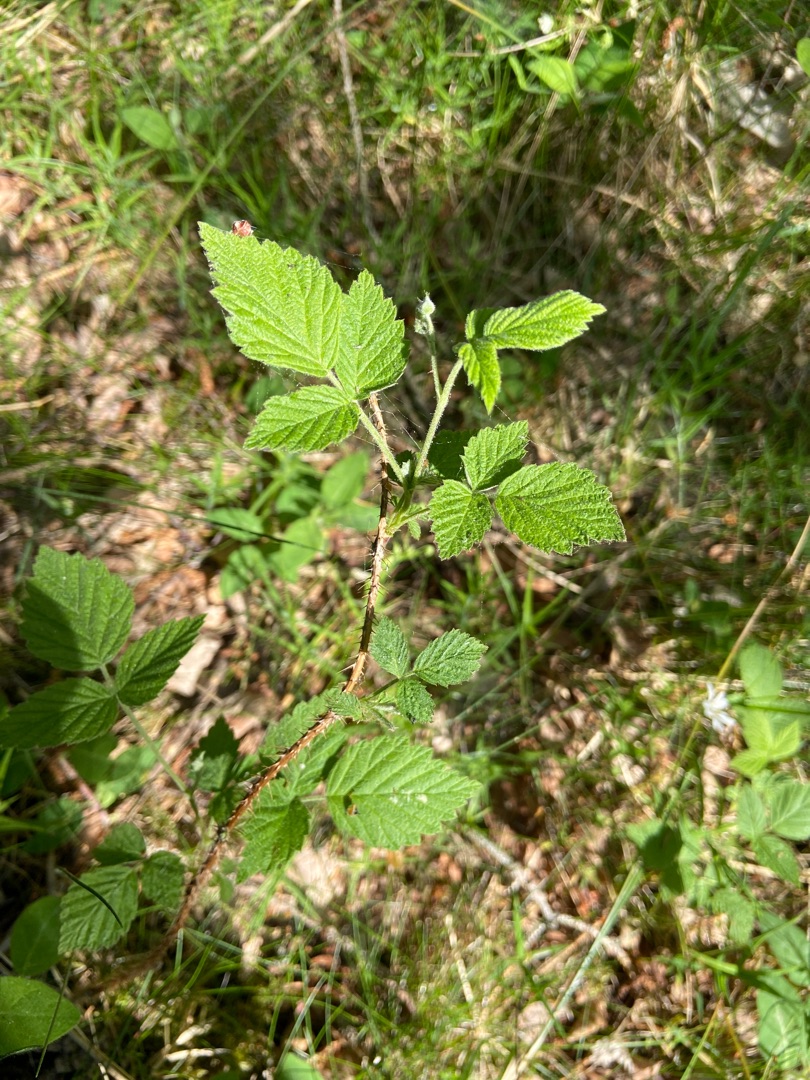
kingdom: Plantae
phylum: Tracheophyta
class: Magnoliopsida
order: Rosales
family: Rosaceae
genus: Rubus
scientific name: Rubus idaeus
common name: Hindbær
